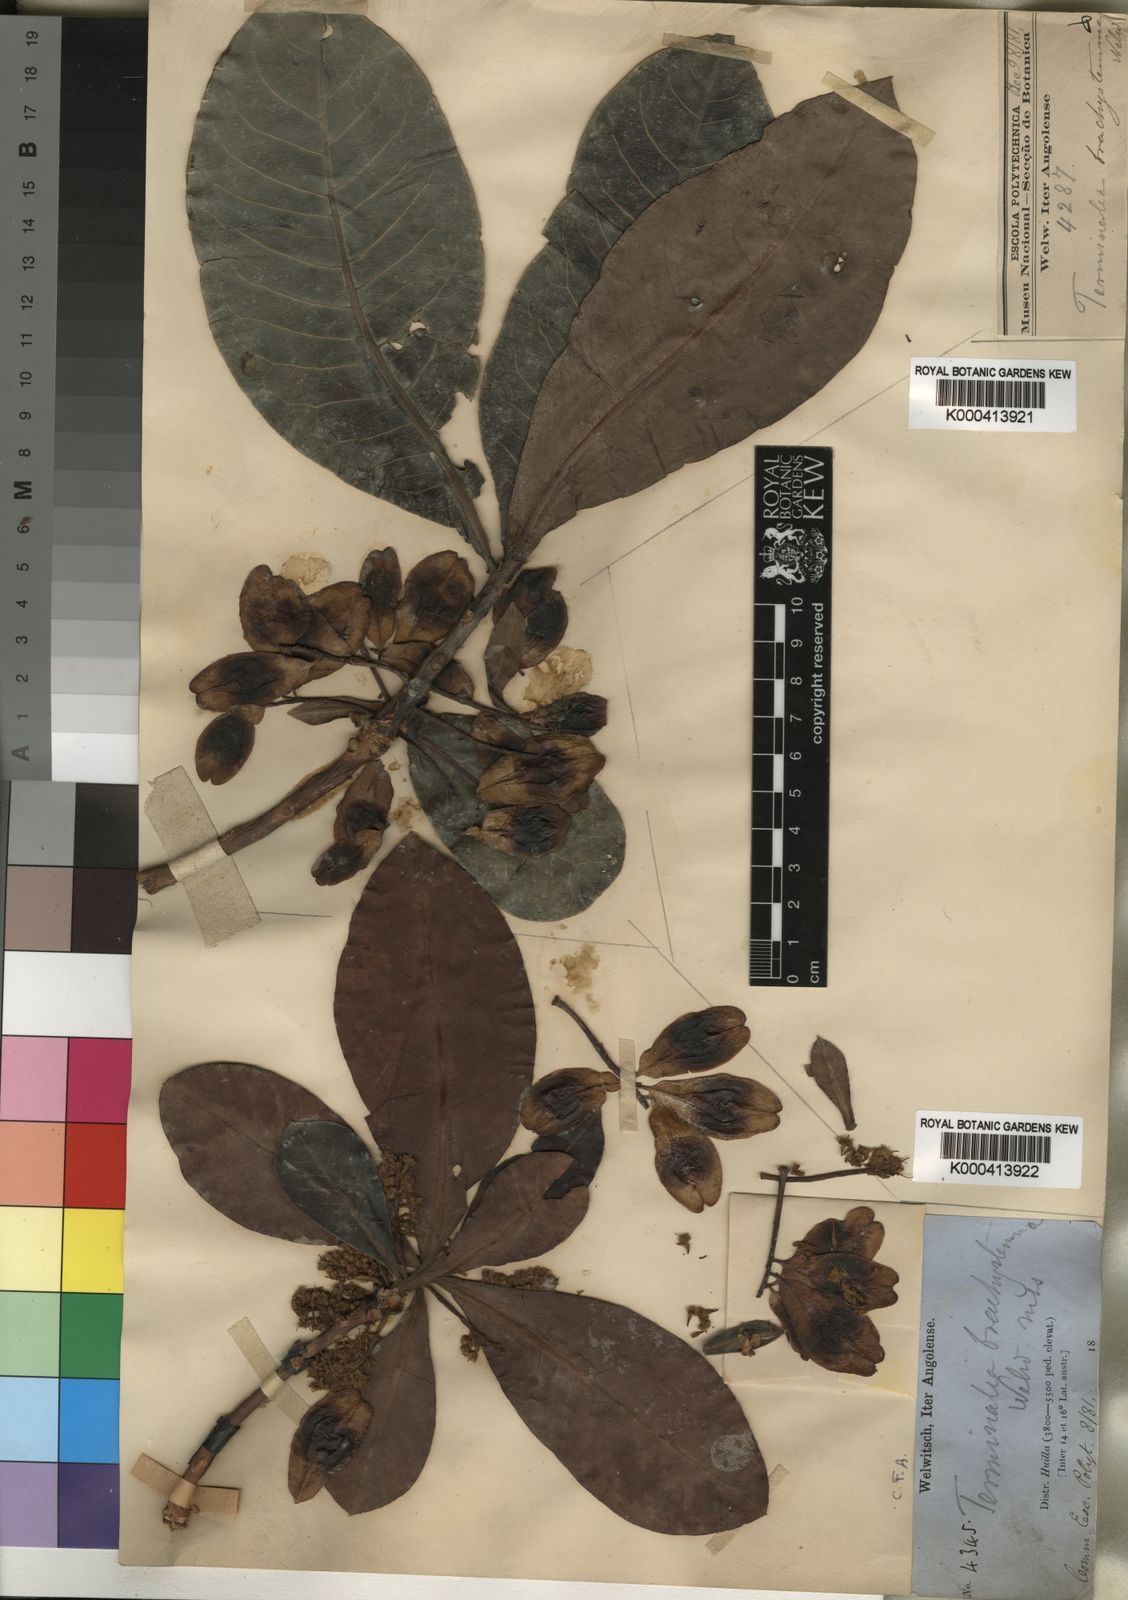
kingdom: Plantae
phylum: Tracheophyta
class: Magnoliopsida
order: Myrtales
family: Combretaceae
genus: Terminalia
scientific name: Terminalia brachystemma
